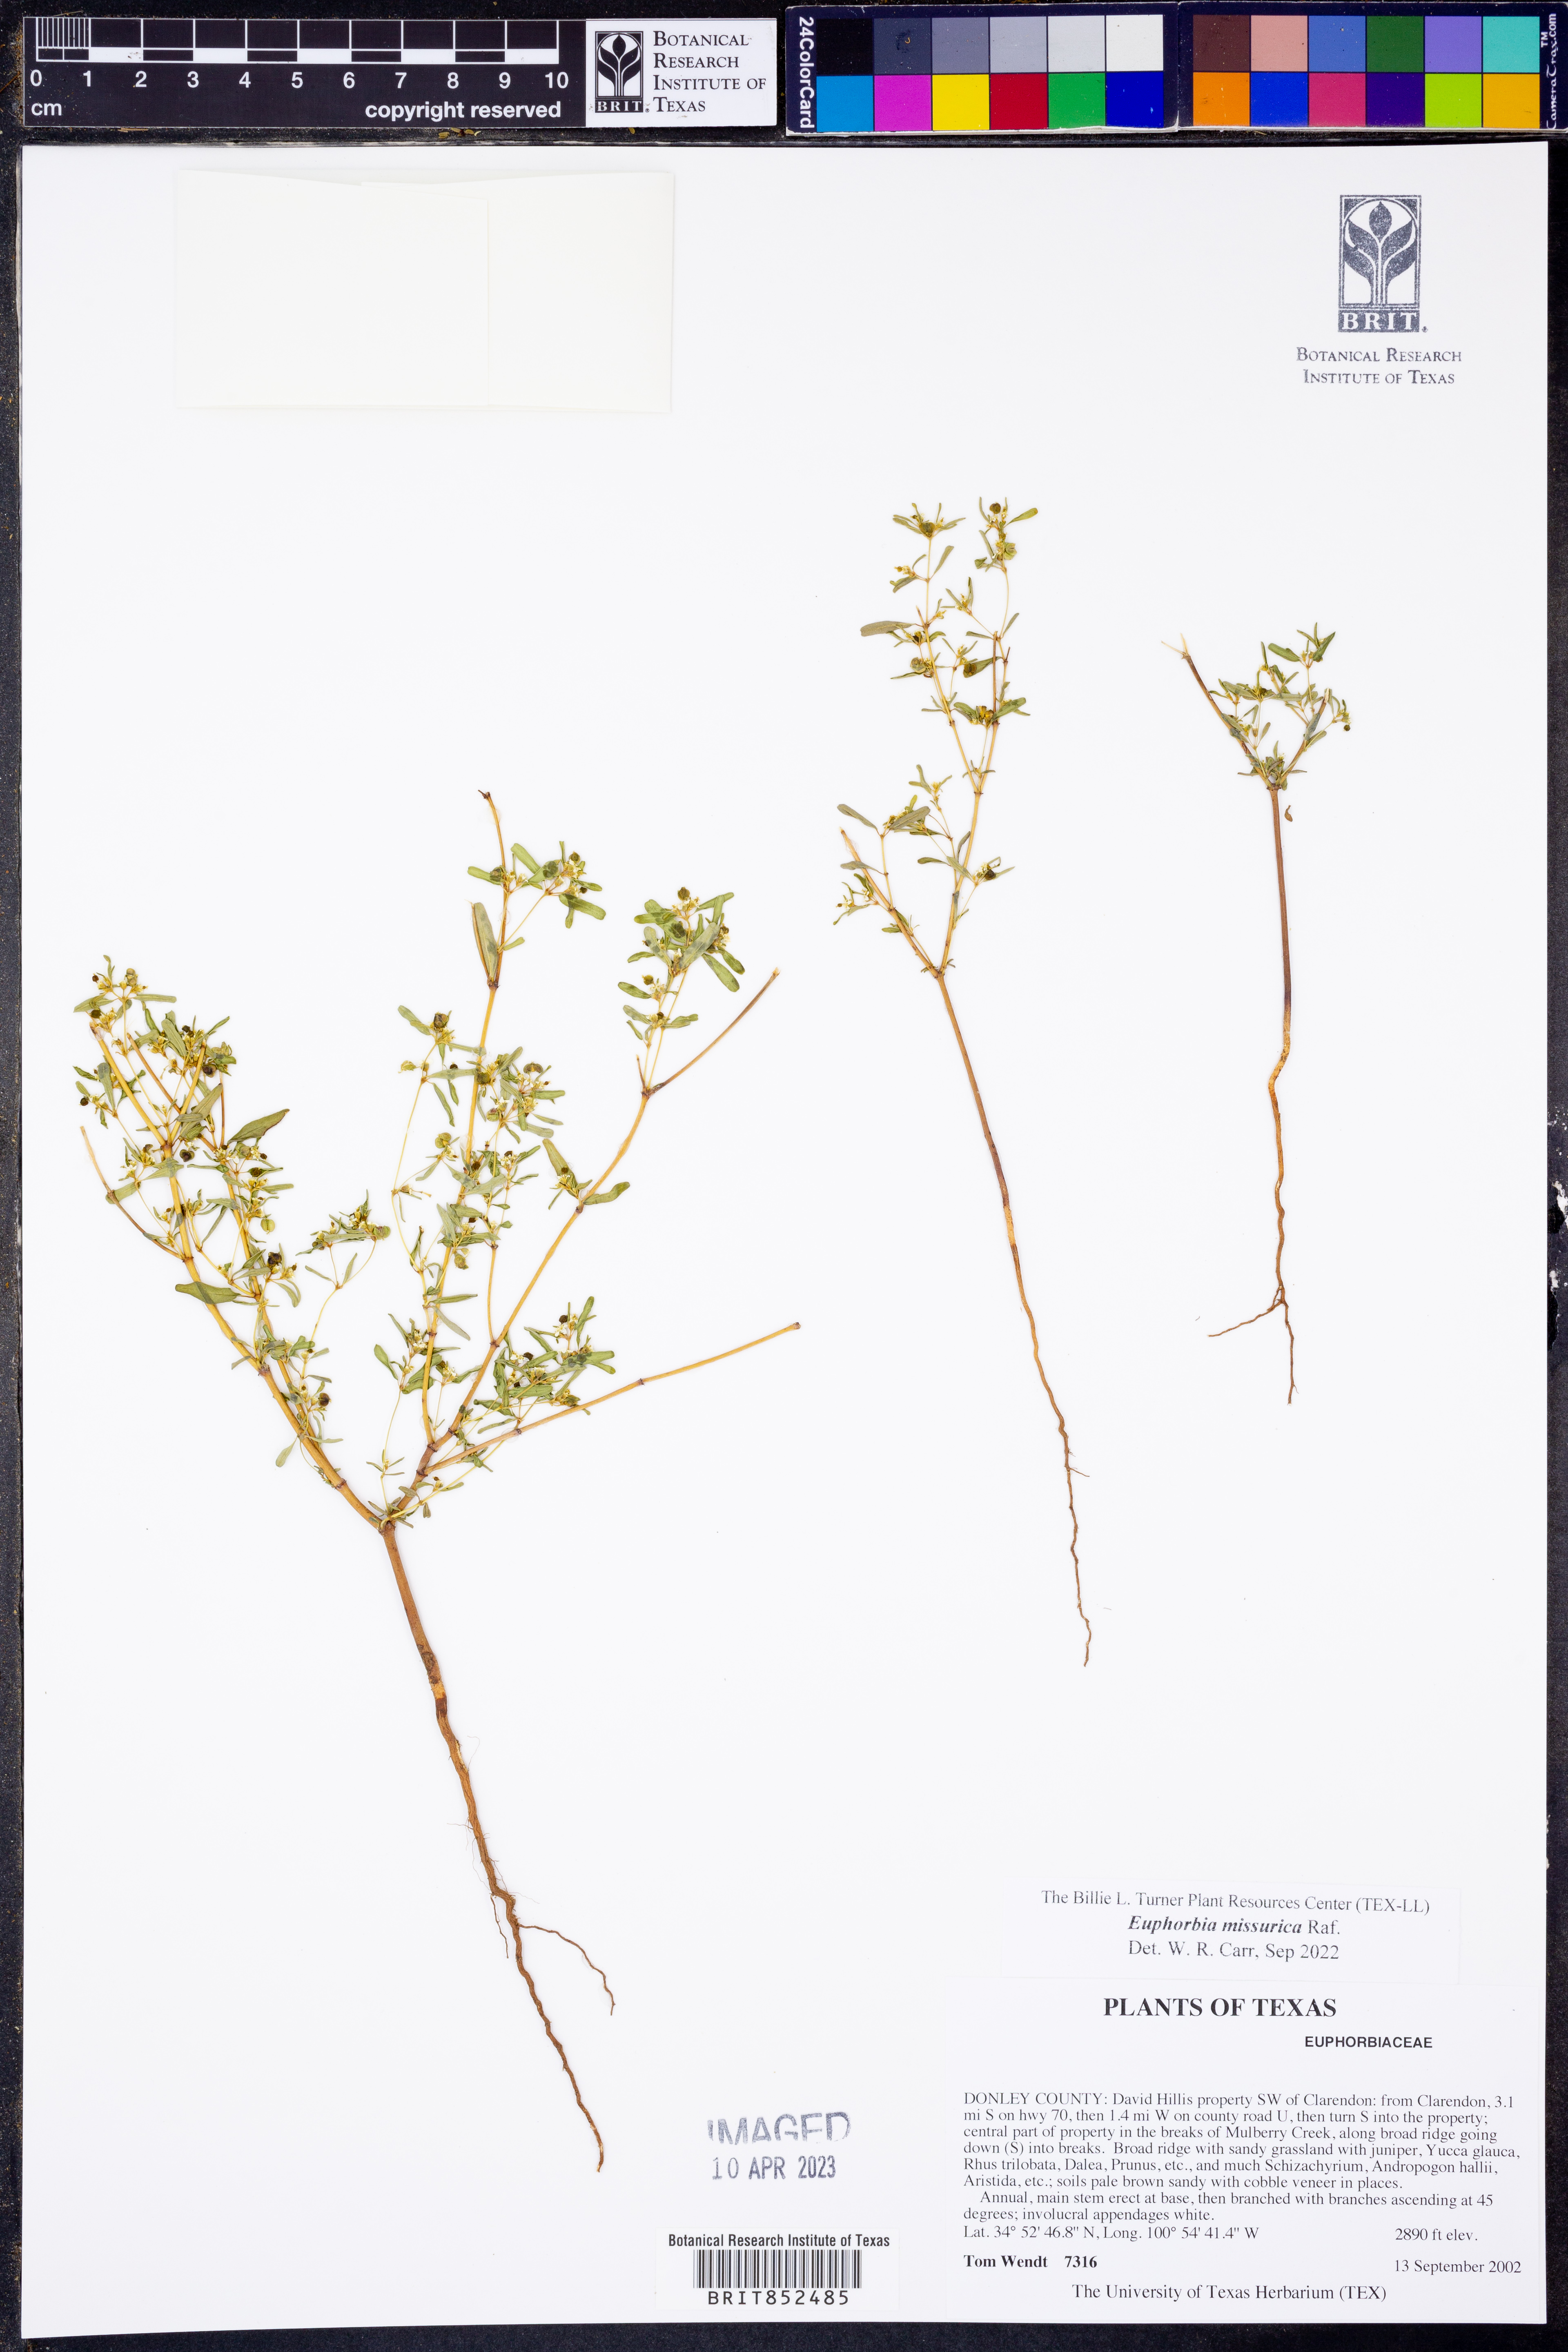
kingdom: Plantae
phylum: Tracheophyta
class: Magnoliopsida
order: Malpighiales
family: Euphorbiaceae
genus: Euphorbia
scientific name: Euphorbia missurica
